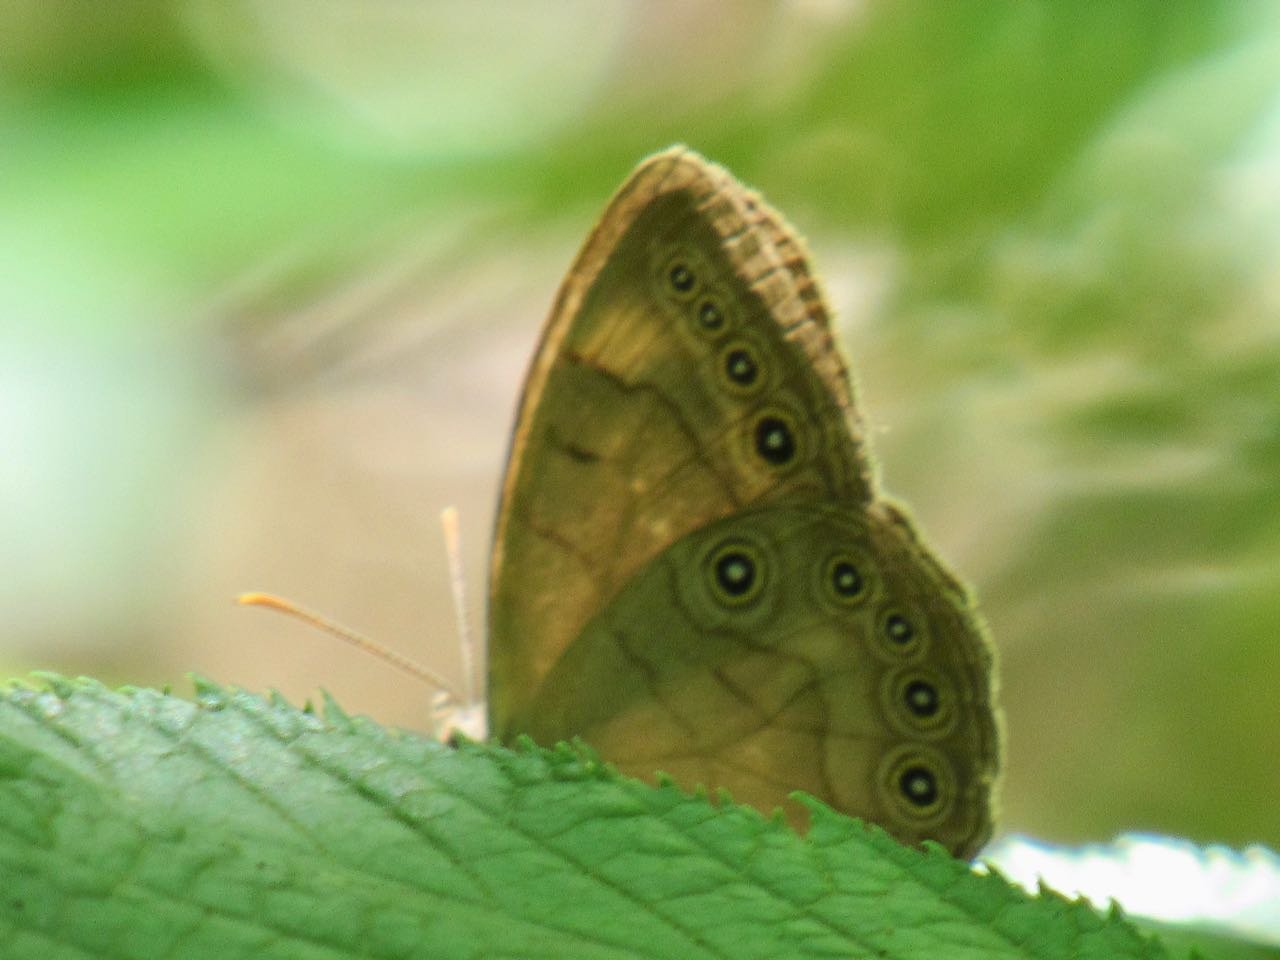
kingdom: Animalia
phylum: Arthropoda
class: Insecta
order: Lepidoptera
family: Nymphalidae
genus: Lethe
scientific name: Lethe eurydice
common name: Appalachian Eyed Brown
